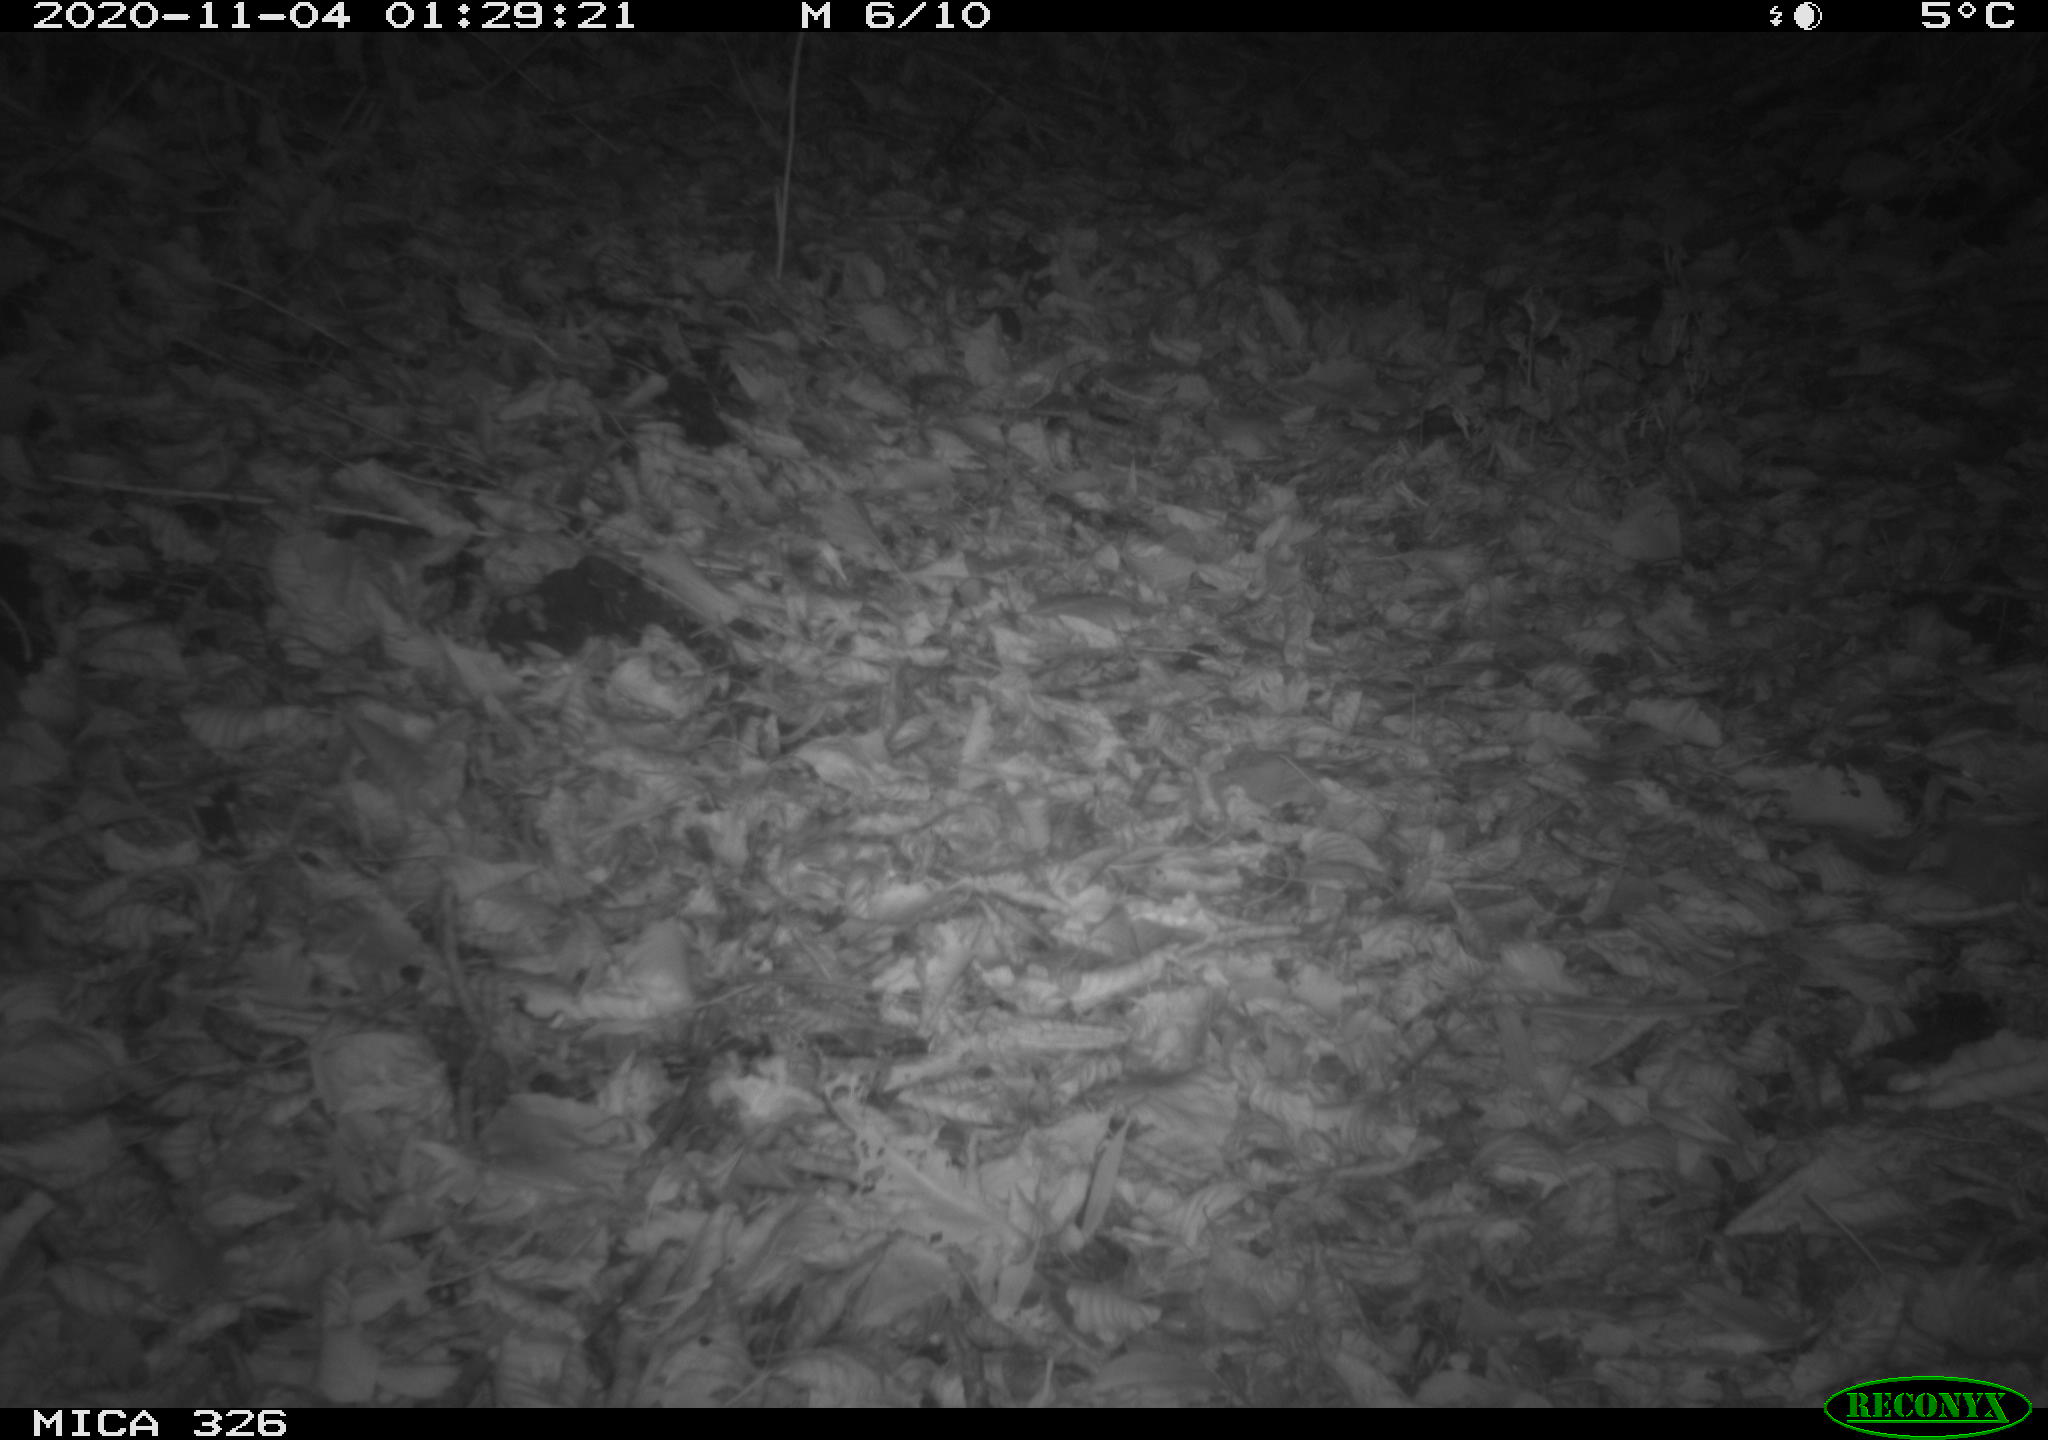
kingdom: Animalia
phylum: Chordata
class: Mammalia
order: Carnivora
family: Mustelidae
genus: Lutra
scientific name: Lutra lutra
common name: European otter
